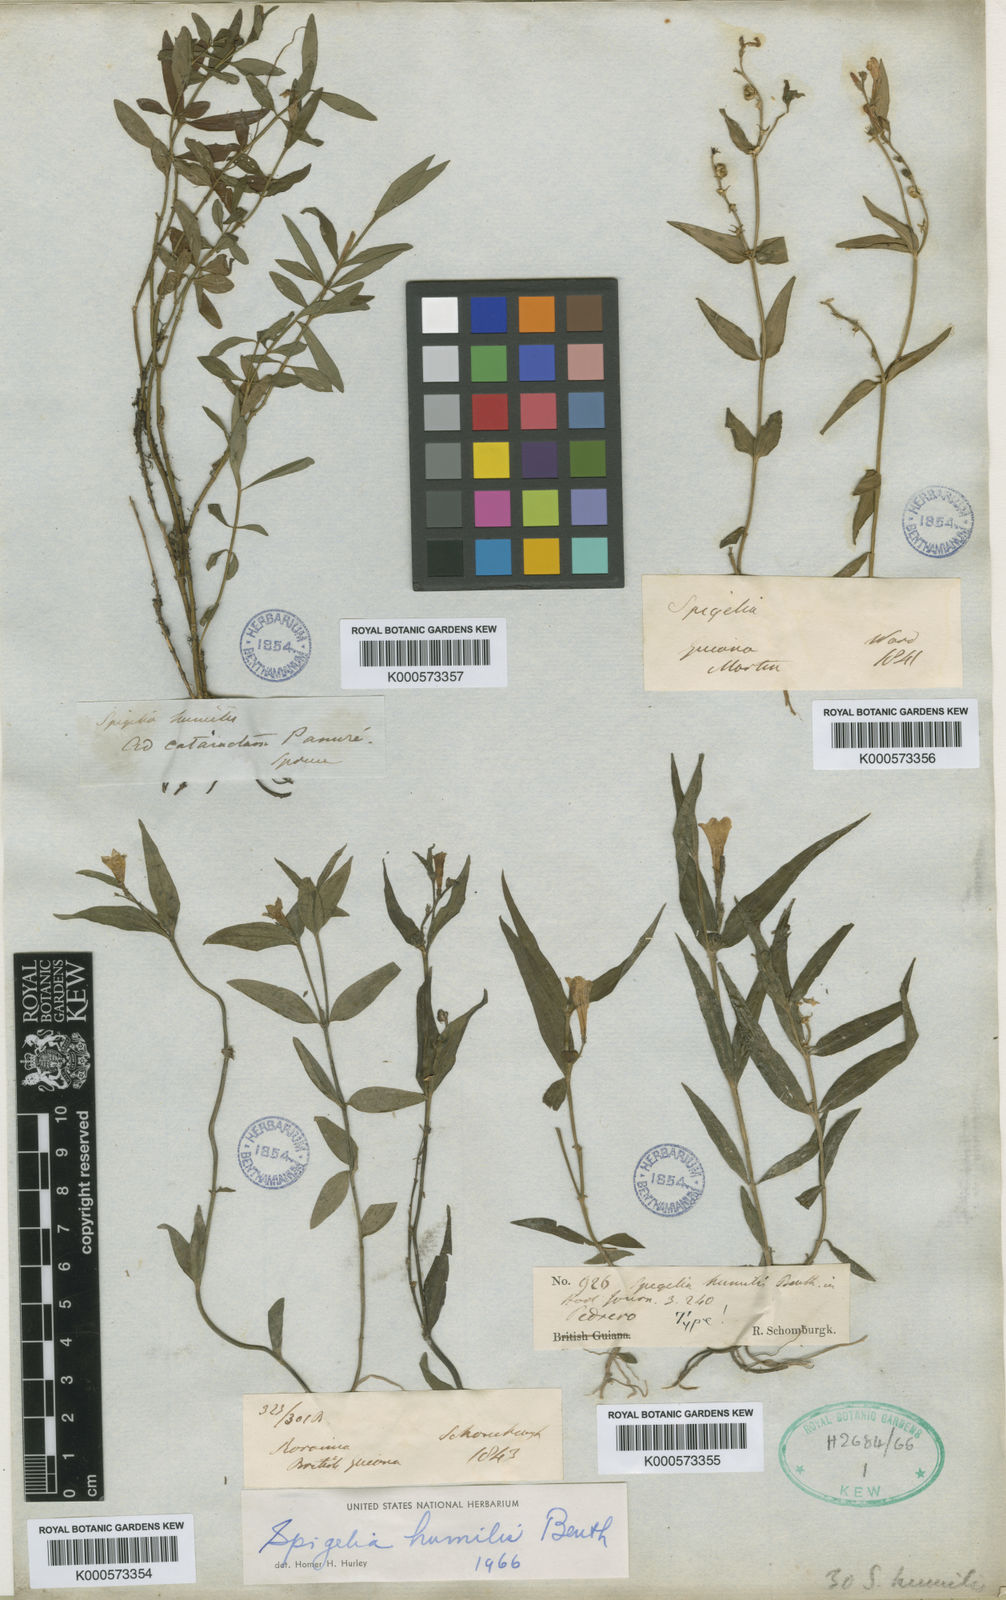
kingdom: Plantae
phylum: Tracheophyta
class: Magnoliopsida
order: Gentianales
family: Loganiaceae
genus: Spigelia
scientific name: Spigelia
